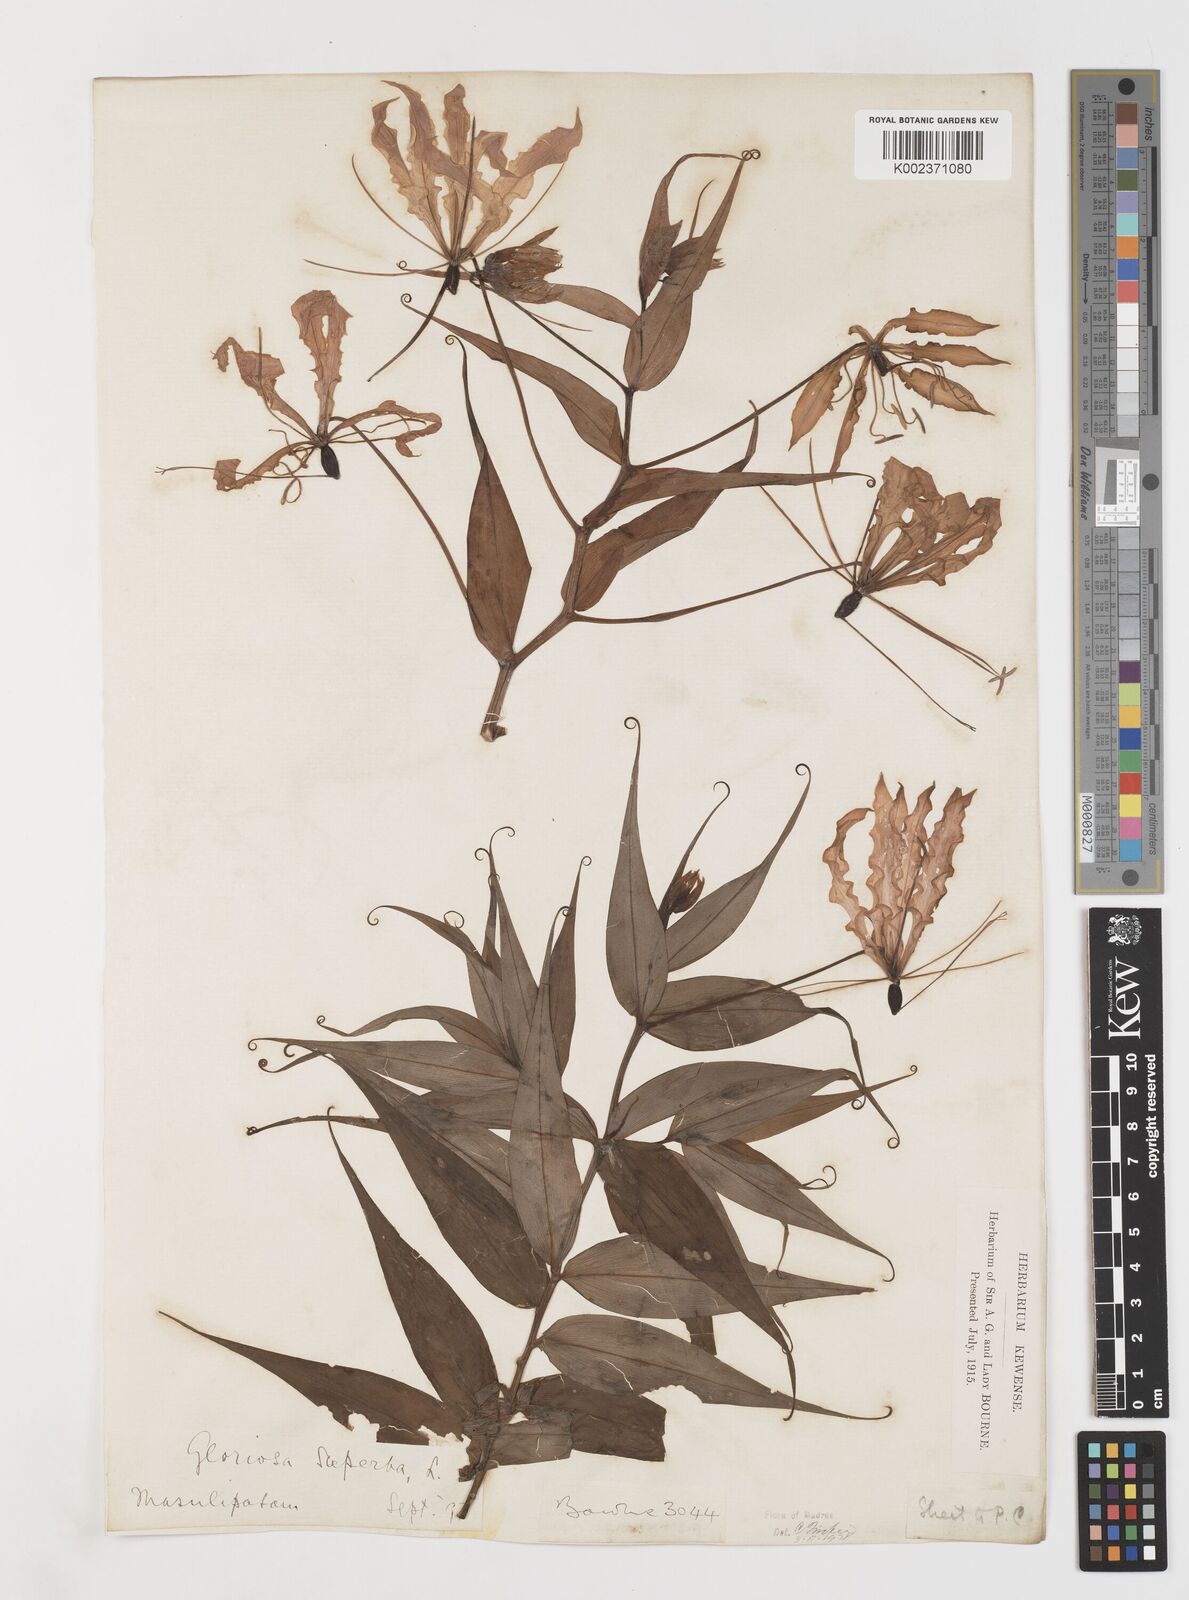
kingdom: Plantae
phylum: Tracheophyta
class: Liliopsida
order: Liliales
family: Colchicaceae
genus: Gloriosa
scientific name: Gloriosa superba
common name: Flame lily
